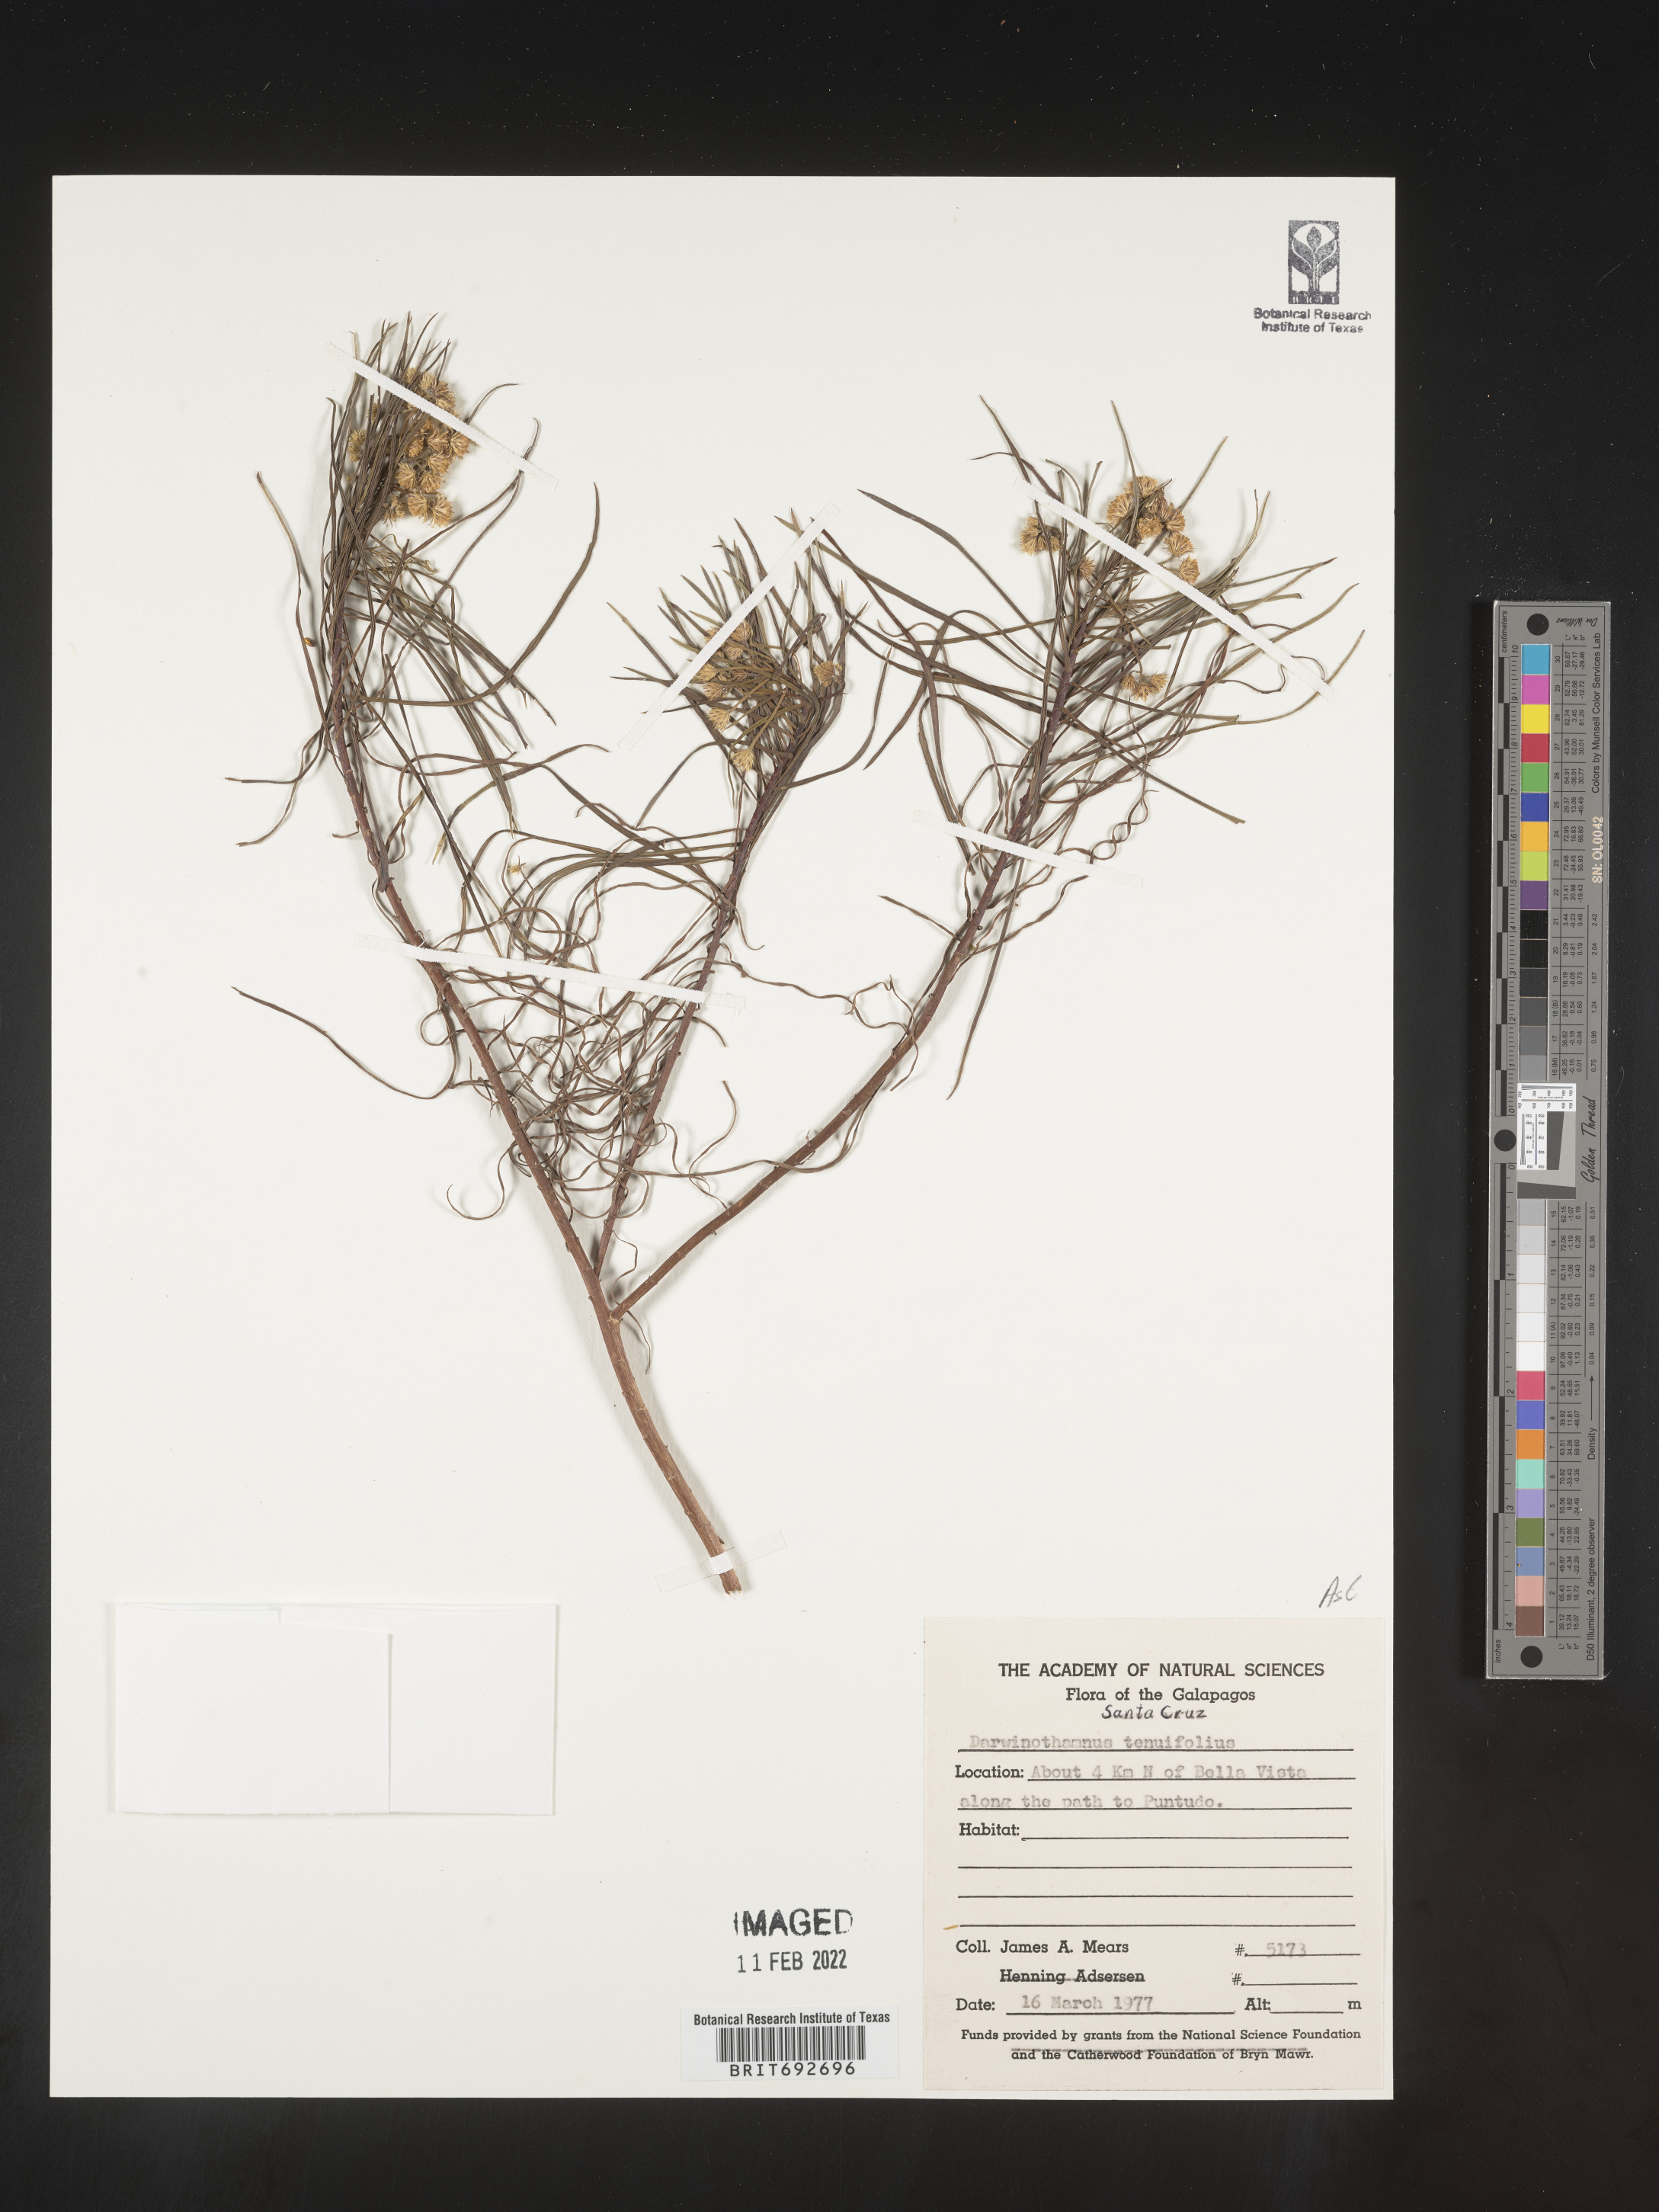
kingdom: Plantae
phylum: Tracheophyta
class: Magnoliopsida
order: Asterales
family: Asteraceae
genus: Erigeron
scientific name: Erigeron
